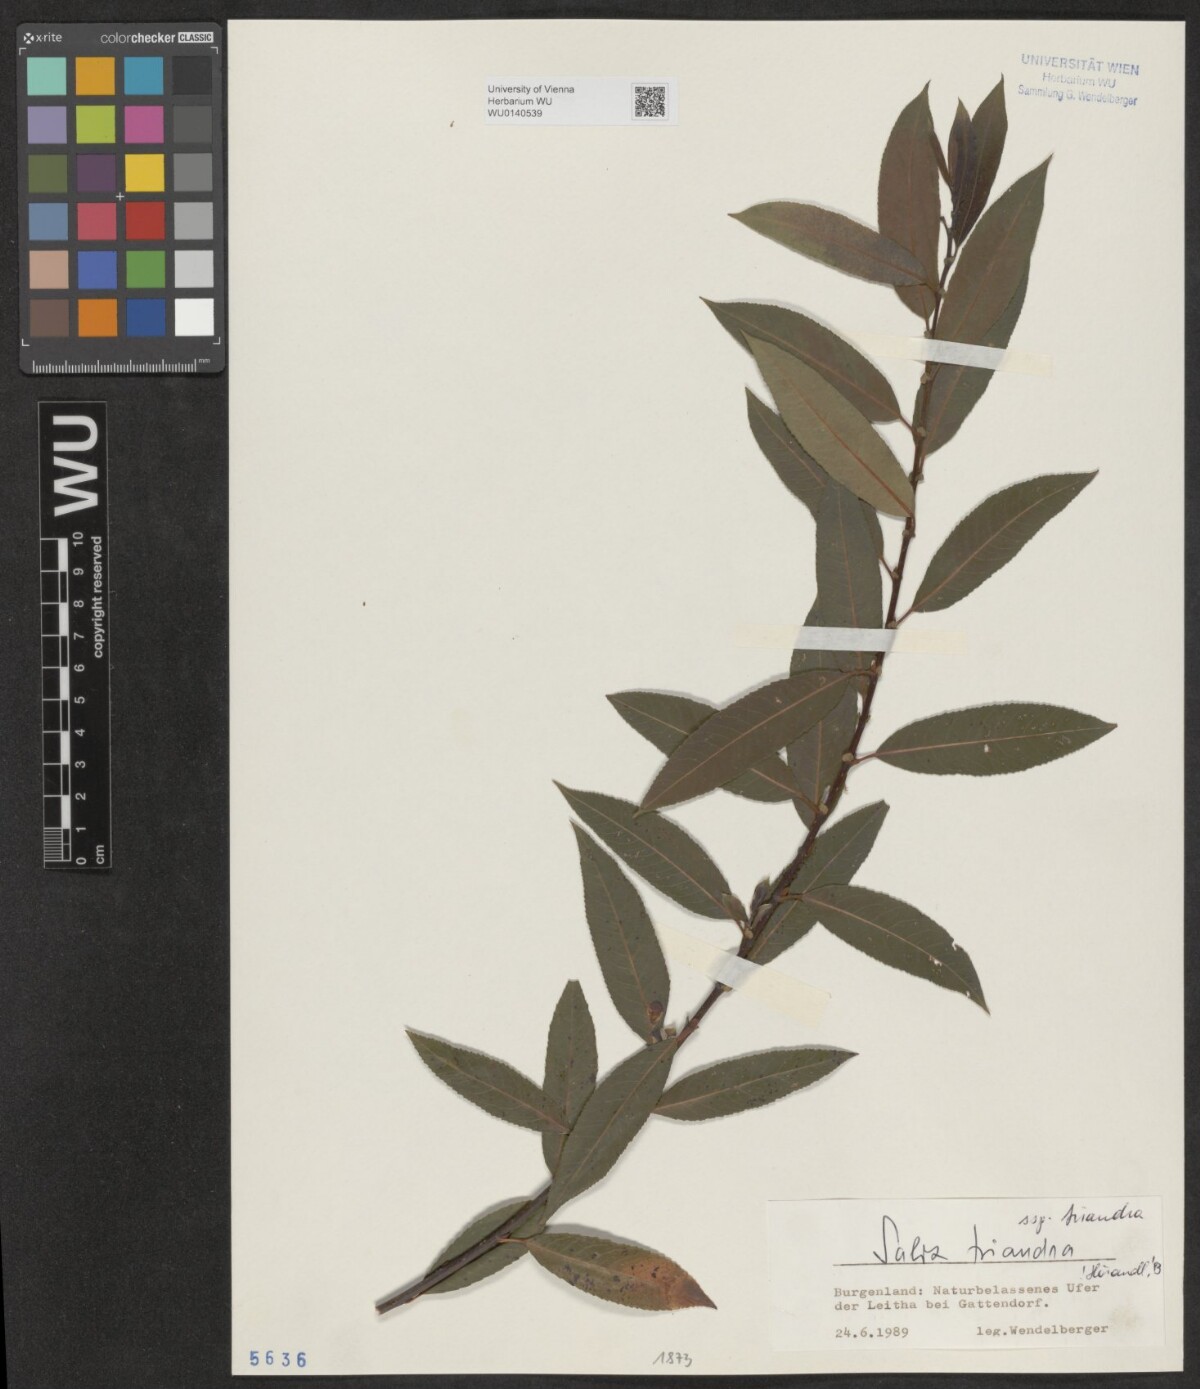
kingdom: Plantae
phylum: Tracheophyta
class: Magnoliopsida
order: Malpighiales
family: Salicaceae
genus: Salix
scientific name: Salix triandra
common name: Almond willow
